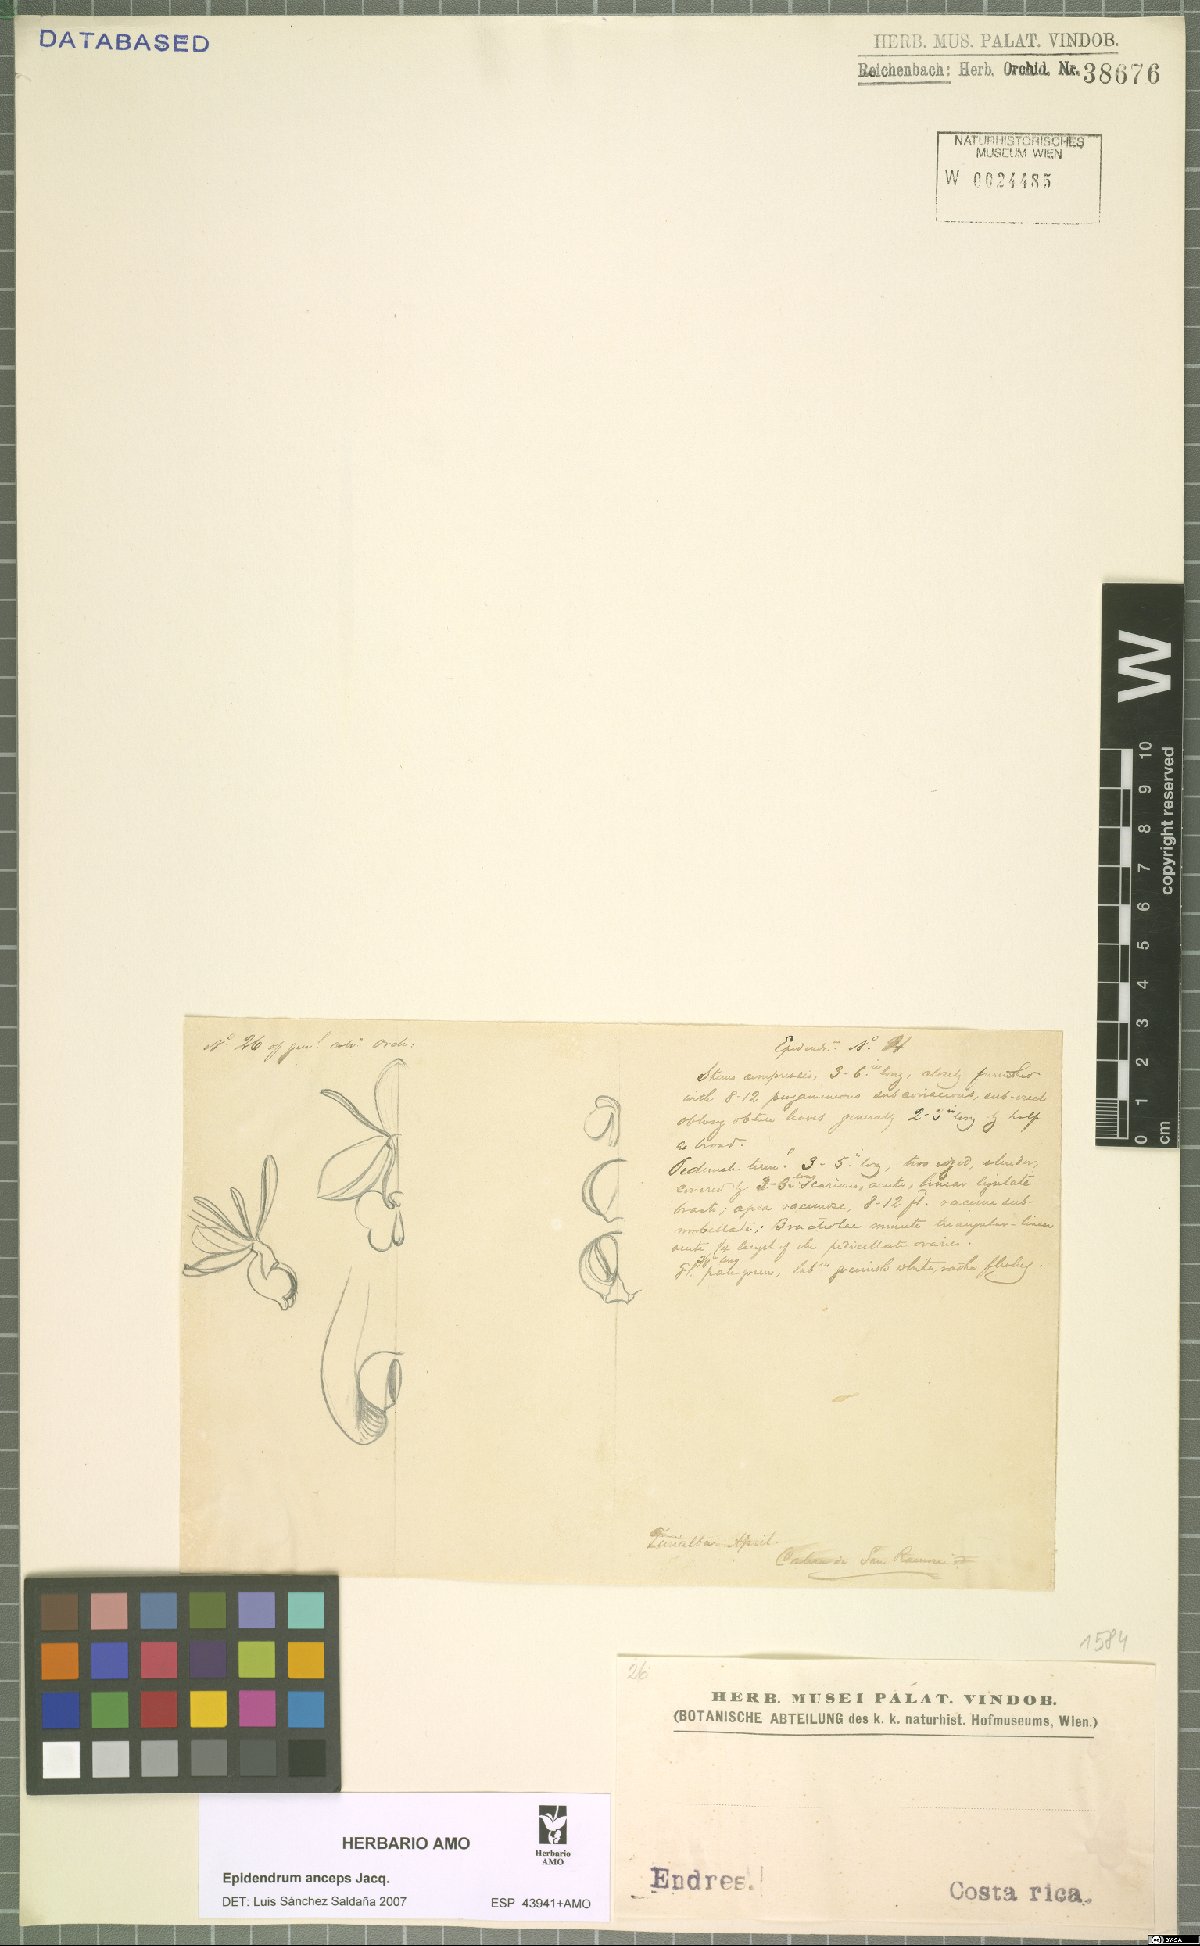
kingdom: Plantae
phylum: Tracheophyta
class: Liliopsida
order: Asparagales
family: Orchidaceae
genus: Epidendrum
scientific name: Epidendrum anceps
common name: Brown-flower butterfly orchid
